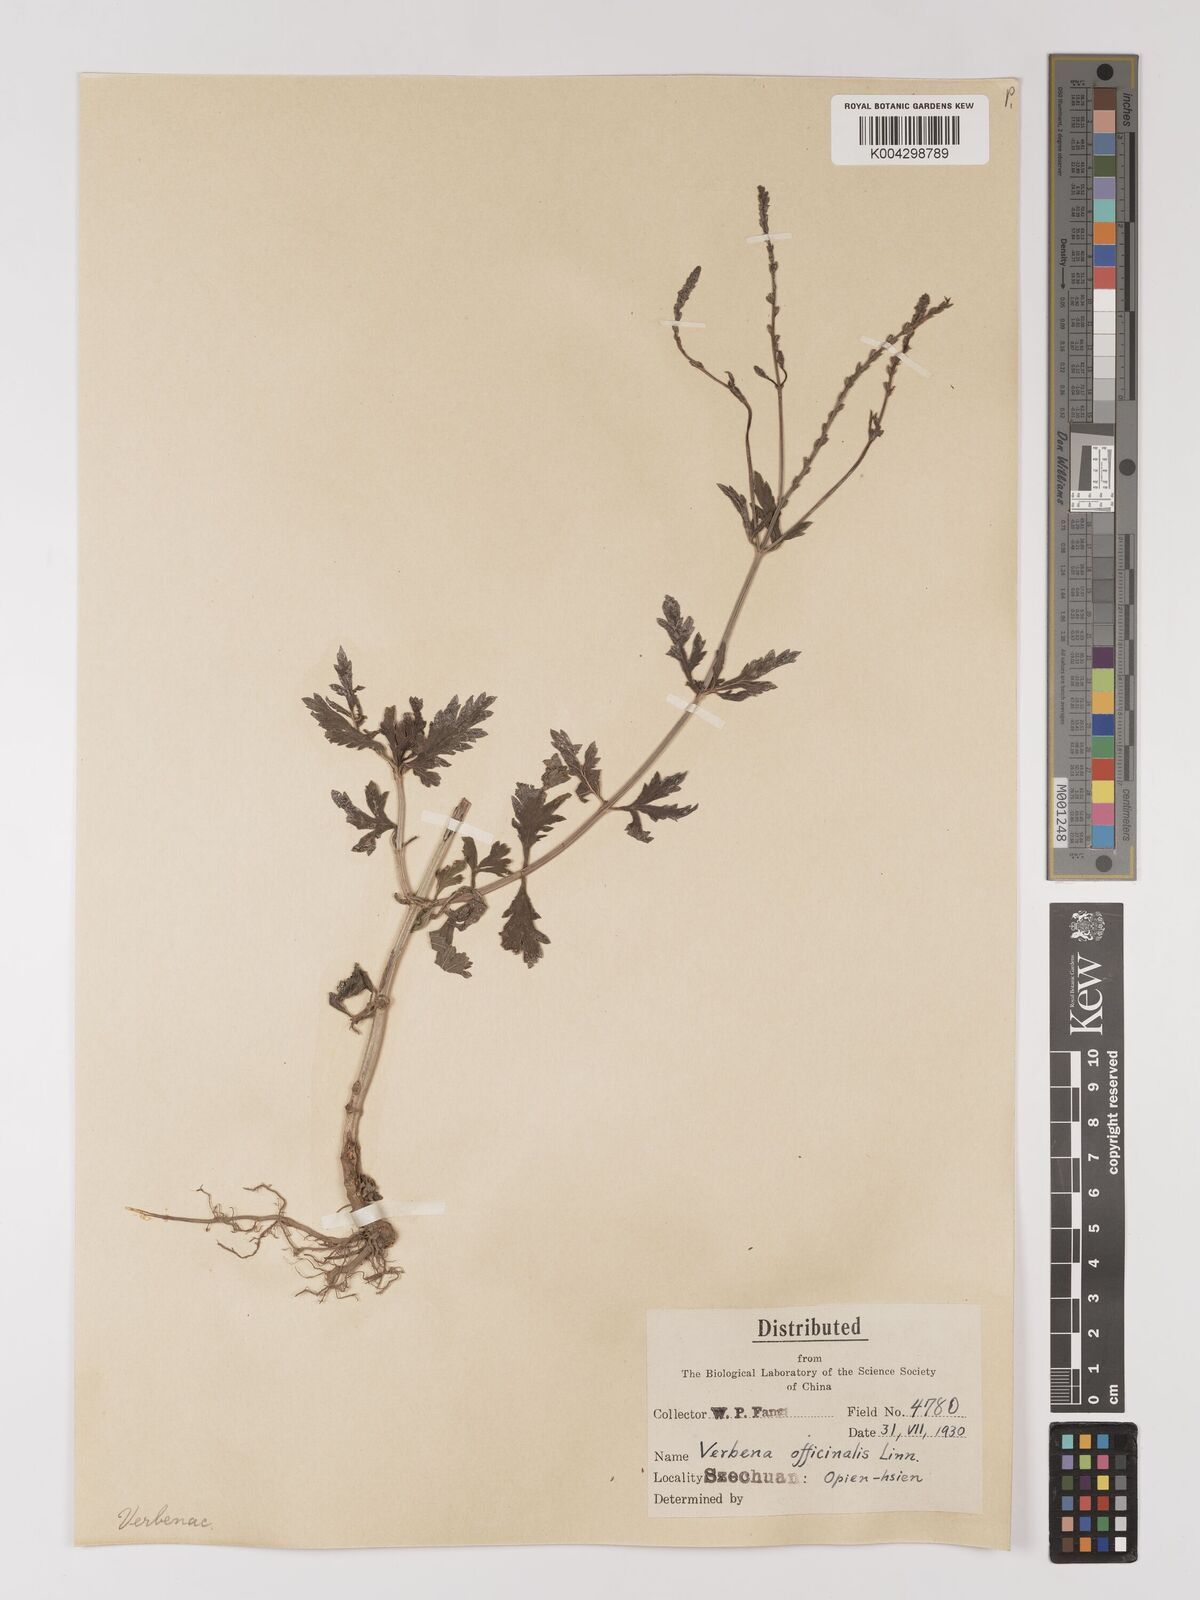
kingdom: Plantae
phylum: Tracheophyta
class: Magnoliopsida
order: Lamiales
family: Verbenaceae
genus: Verbena
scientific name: Verbena officinalis
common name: Vervain
